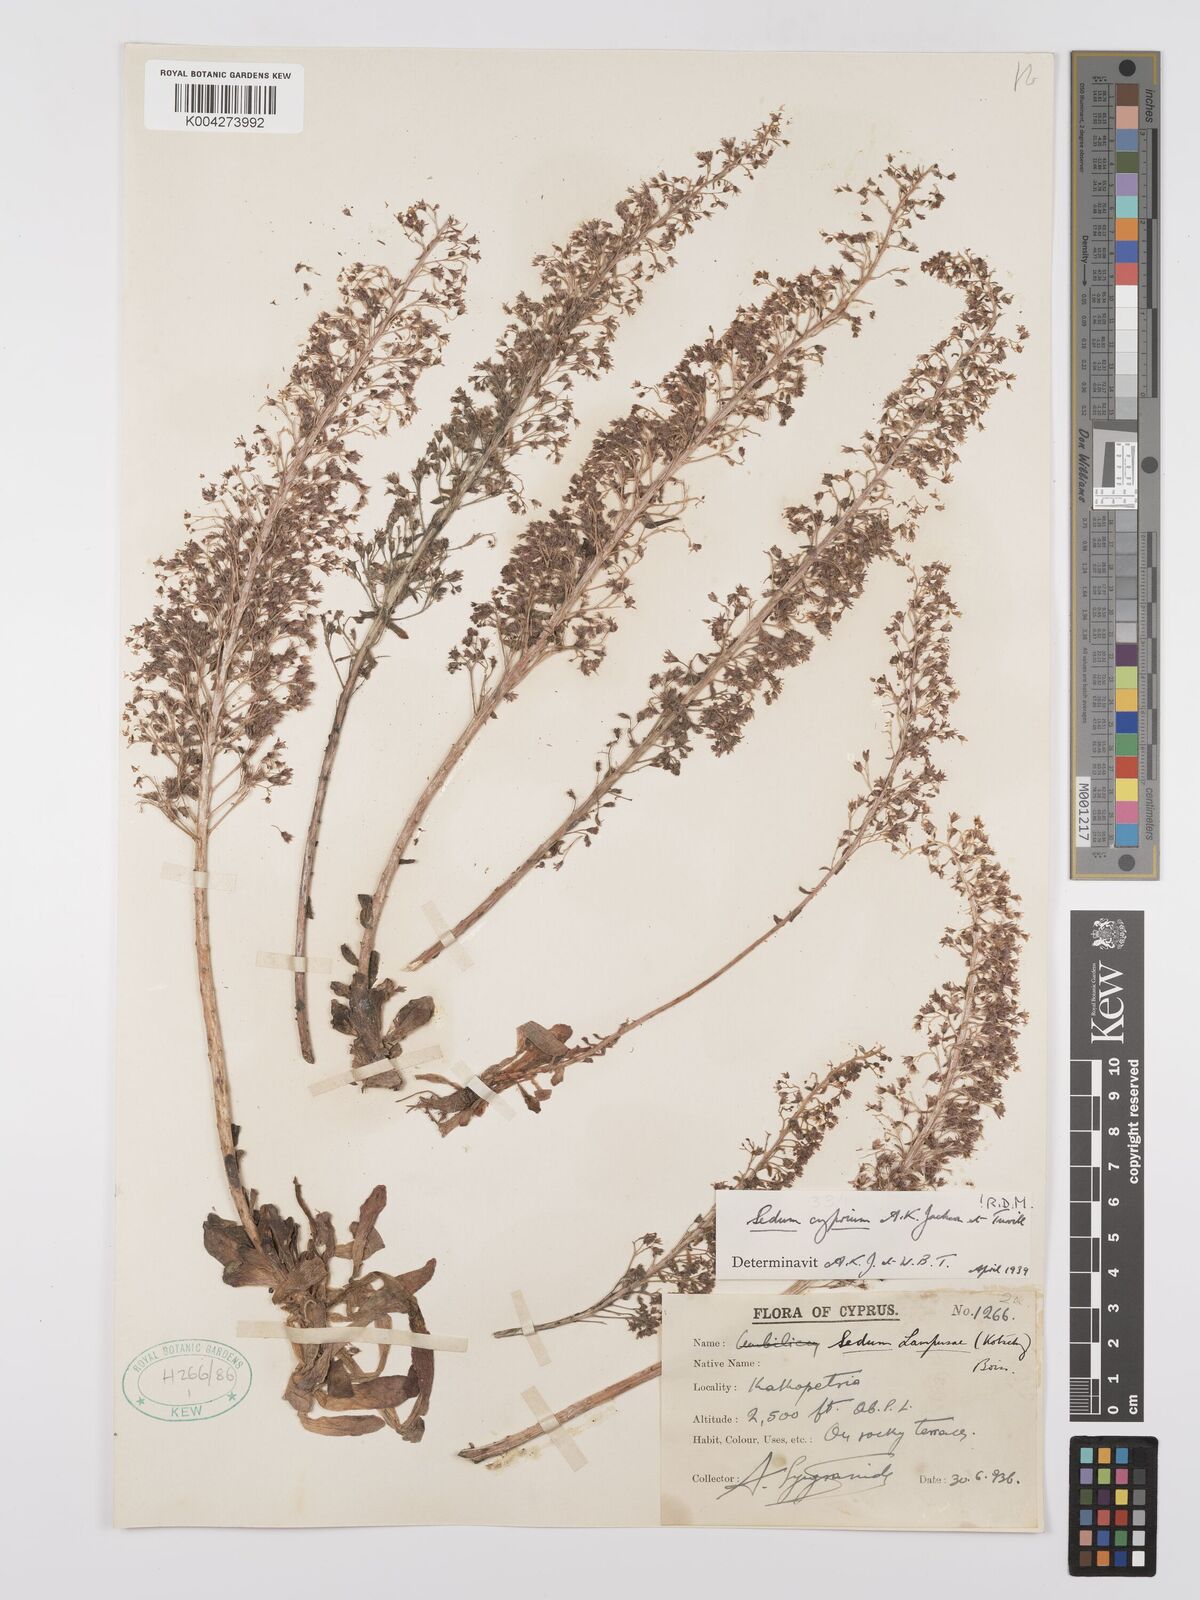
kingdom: Plantae
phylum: Tracheophyta
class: Magnoliopsida
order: Saxifragales
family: Crassulaceae
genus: Sedum
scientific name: Sedum cyprium
